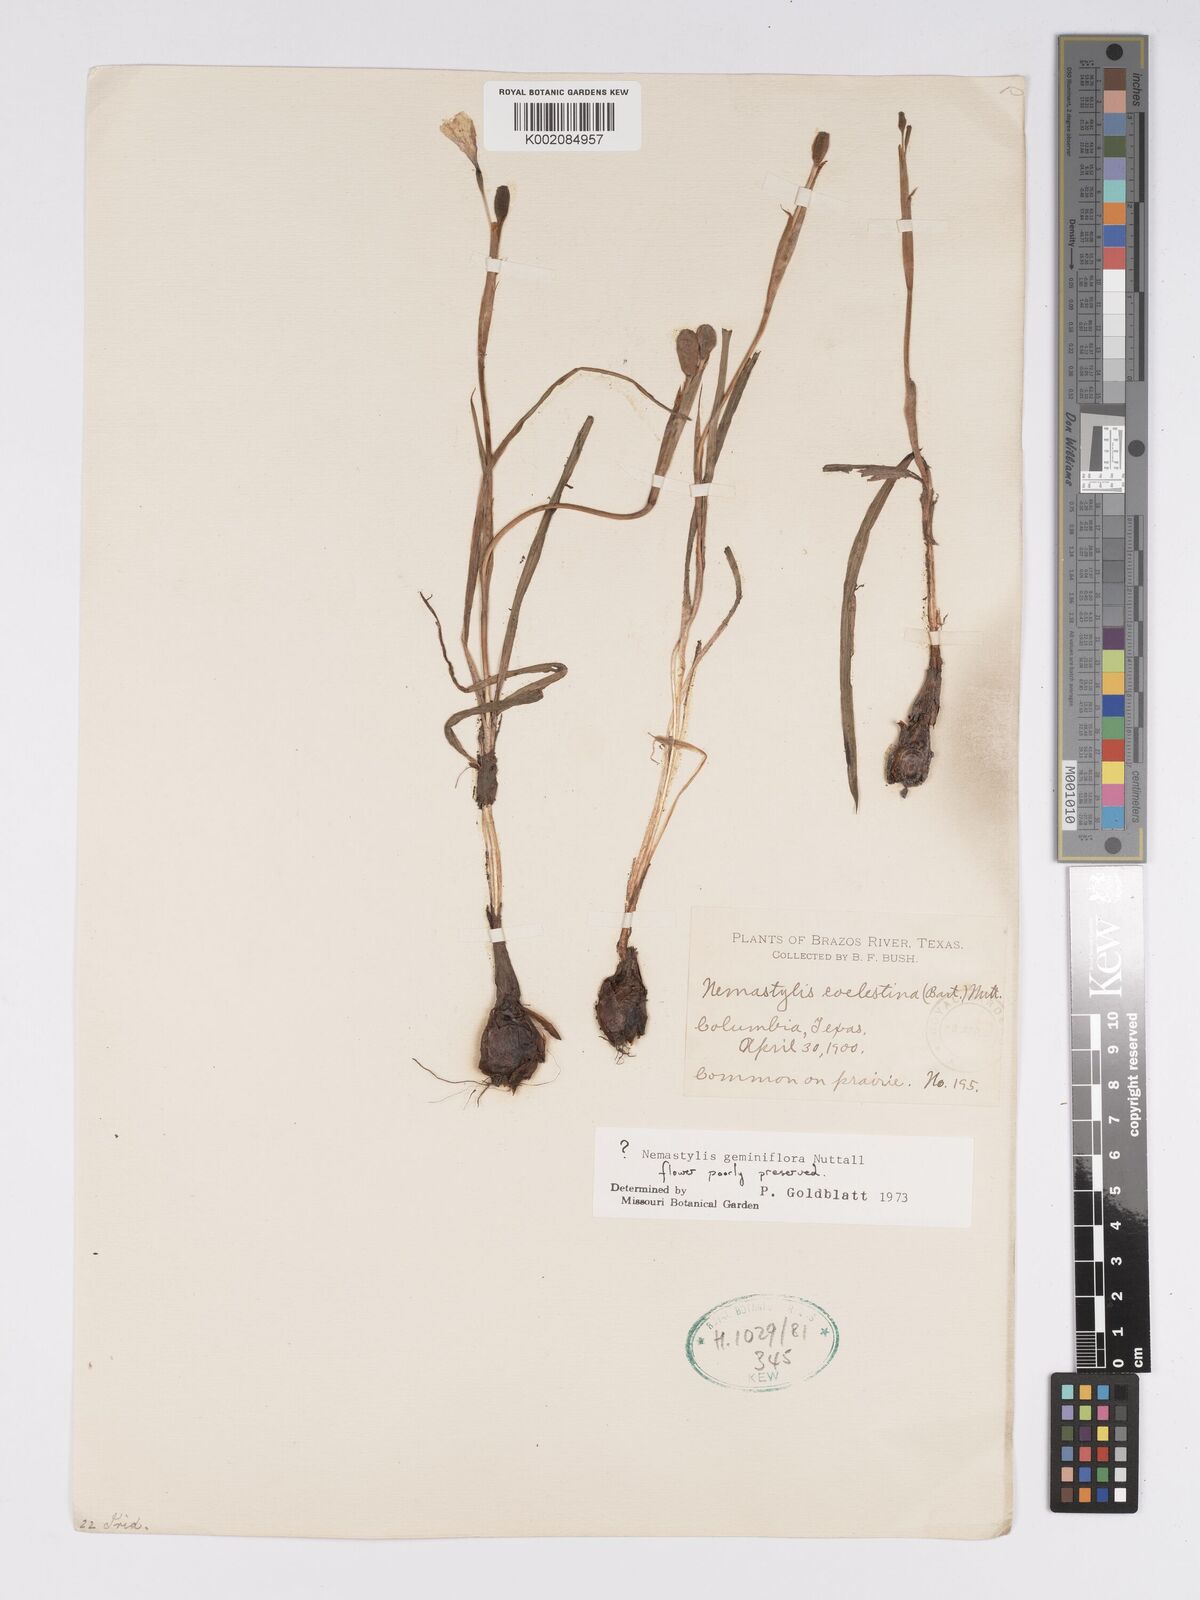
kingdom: Plantae
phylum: Tracheophyta
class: Liliopsida
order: Asparagales
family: Iridaceae
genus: Nemastylis
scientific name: Nemastylis geminiflora
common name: Prairie celestial
